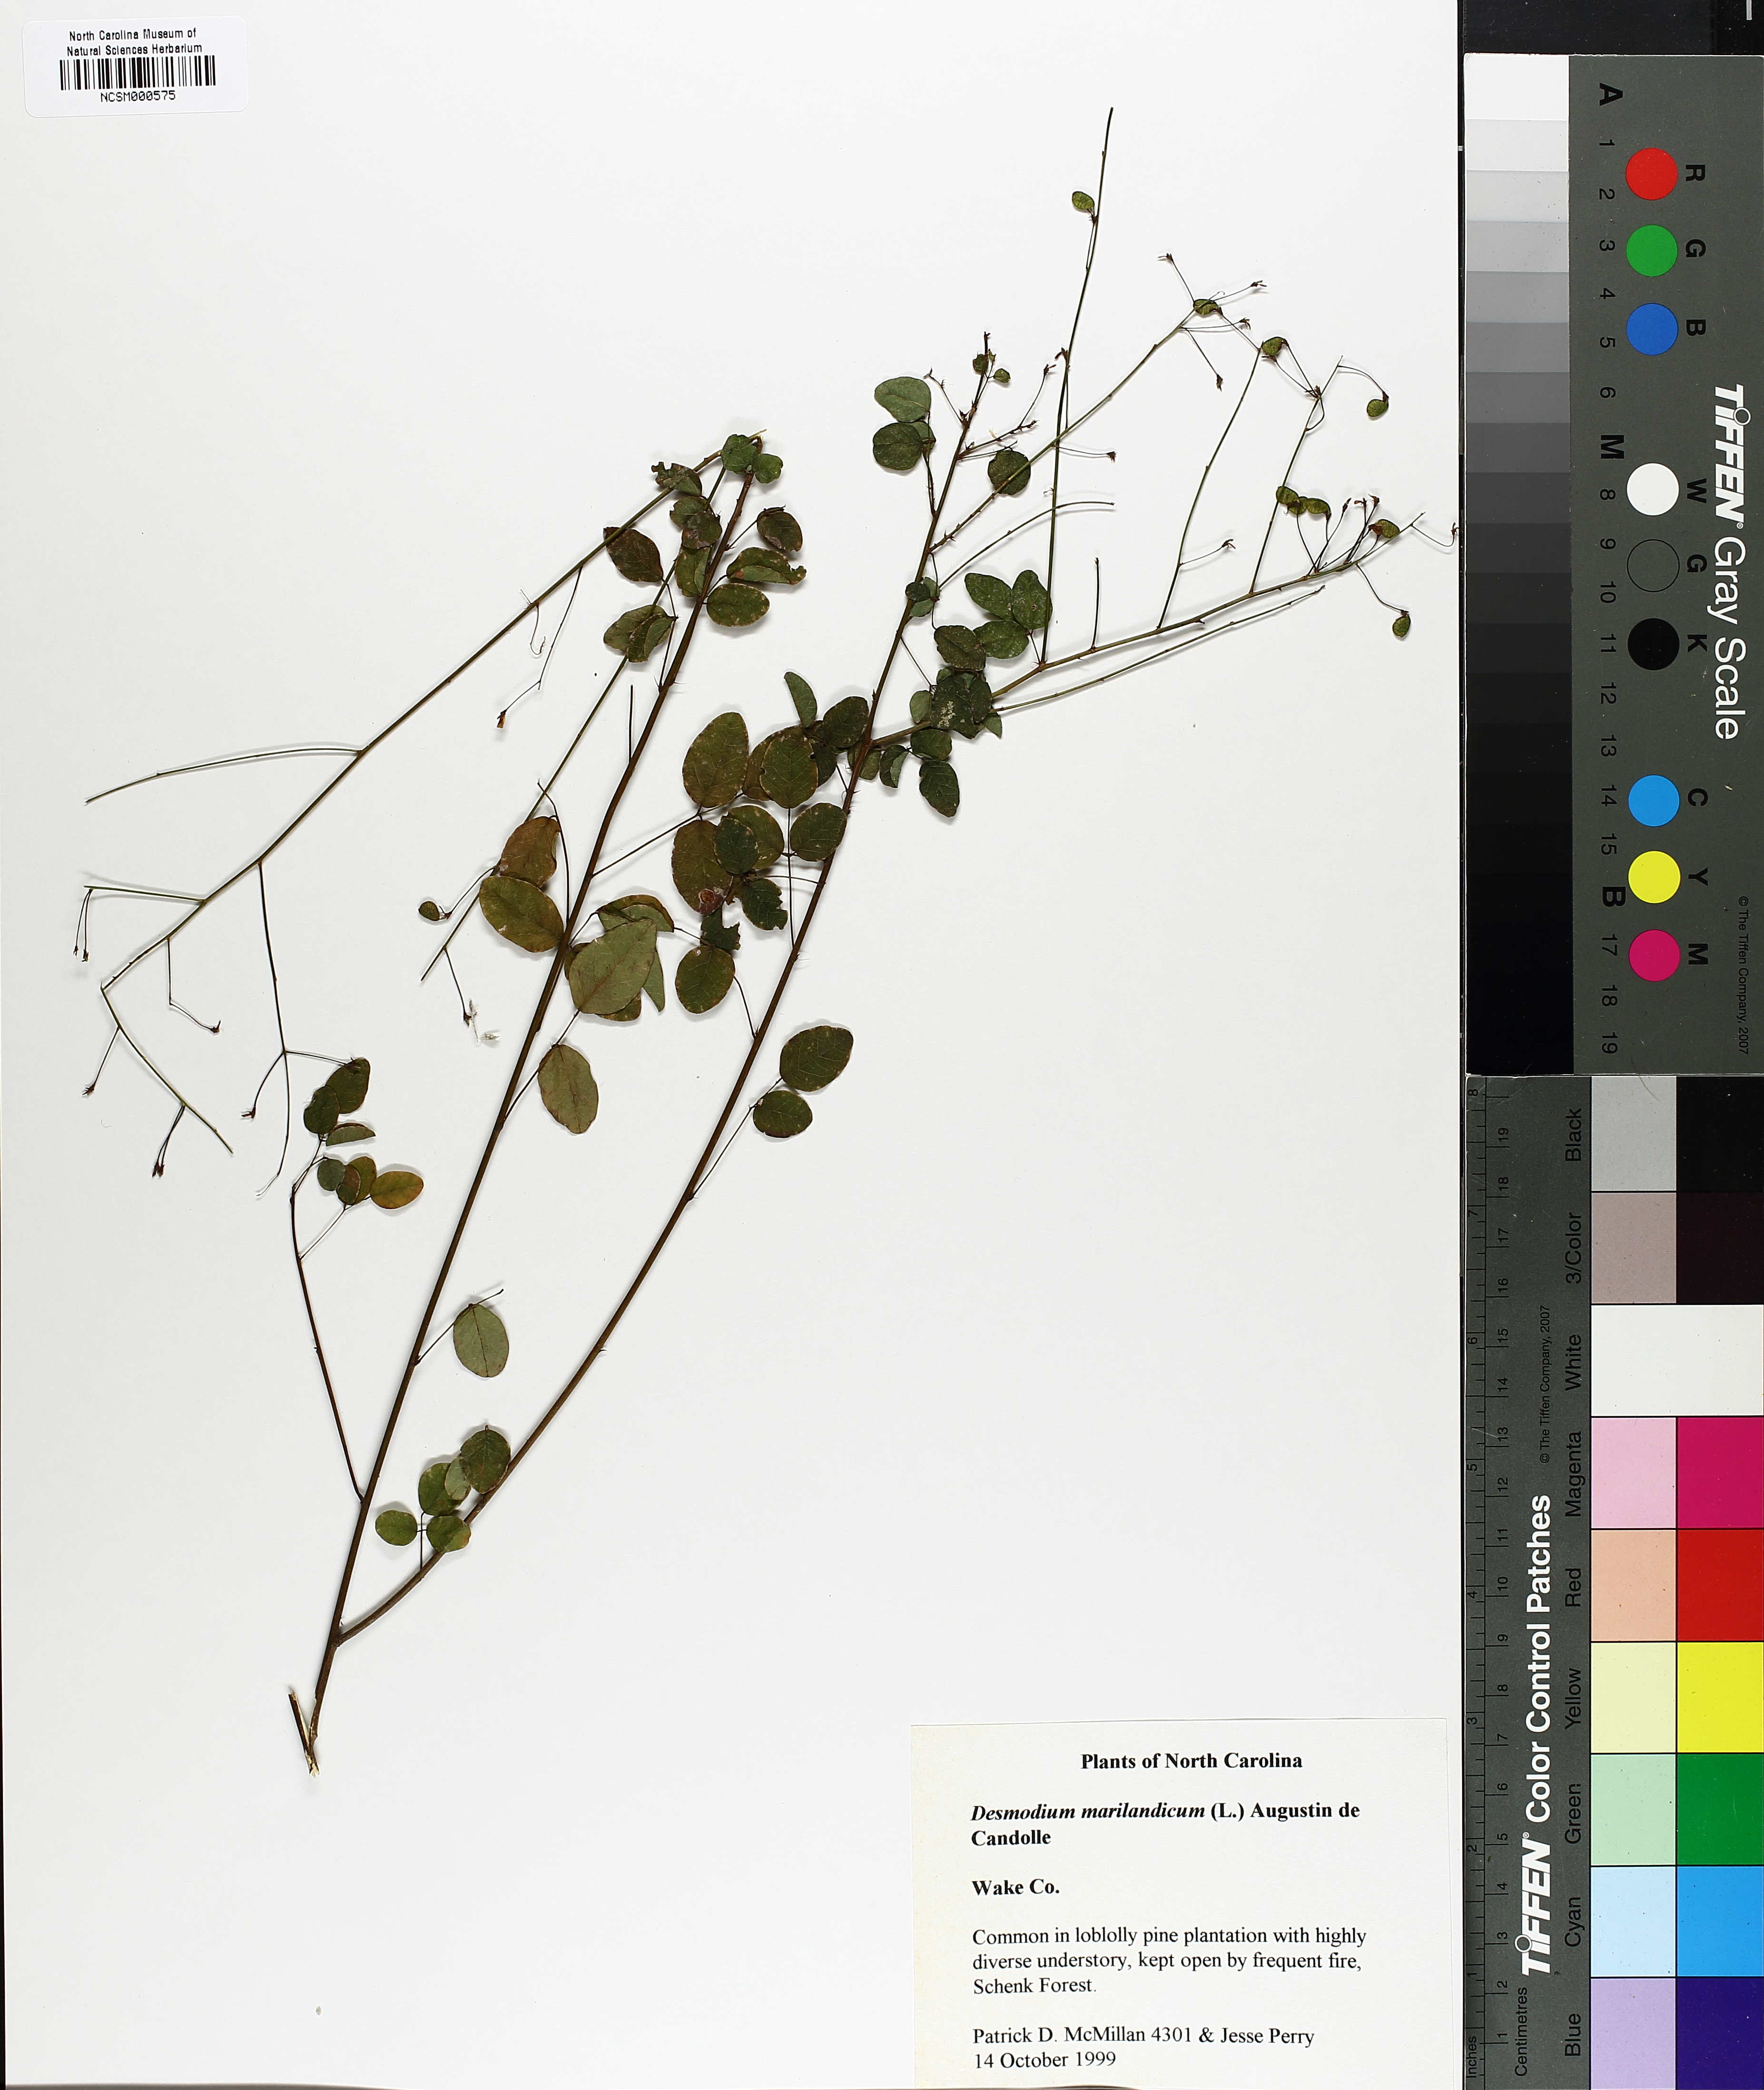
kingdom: Plantae
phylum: Tracheophyta
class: Magnoliopsida
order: Fabales
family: Fabaceae
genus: Desmodium
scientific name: Desmodium marilandicum
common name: Maryland tick-trefoil
